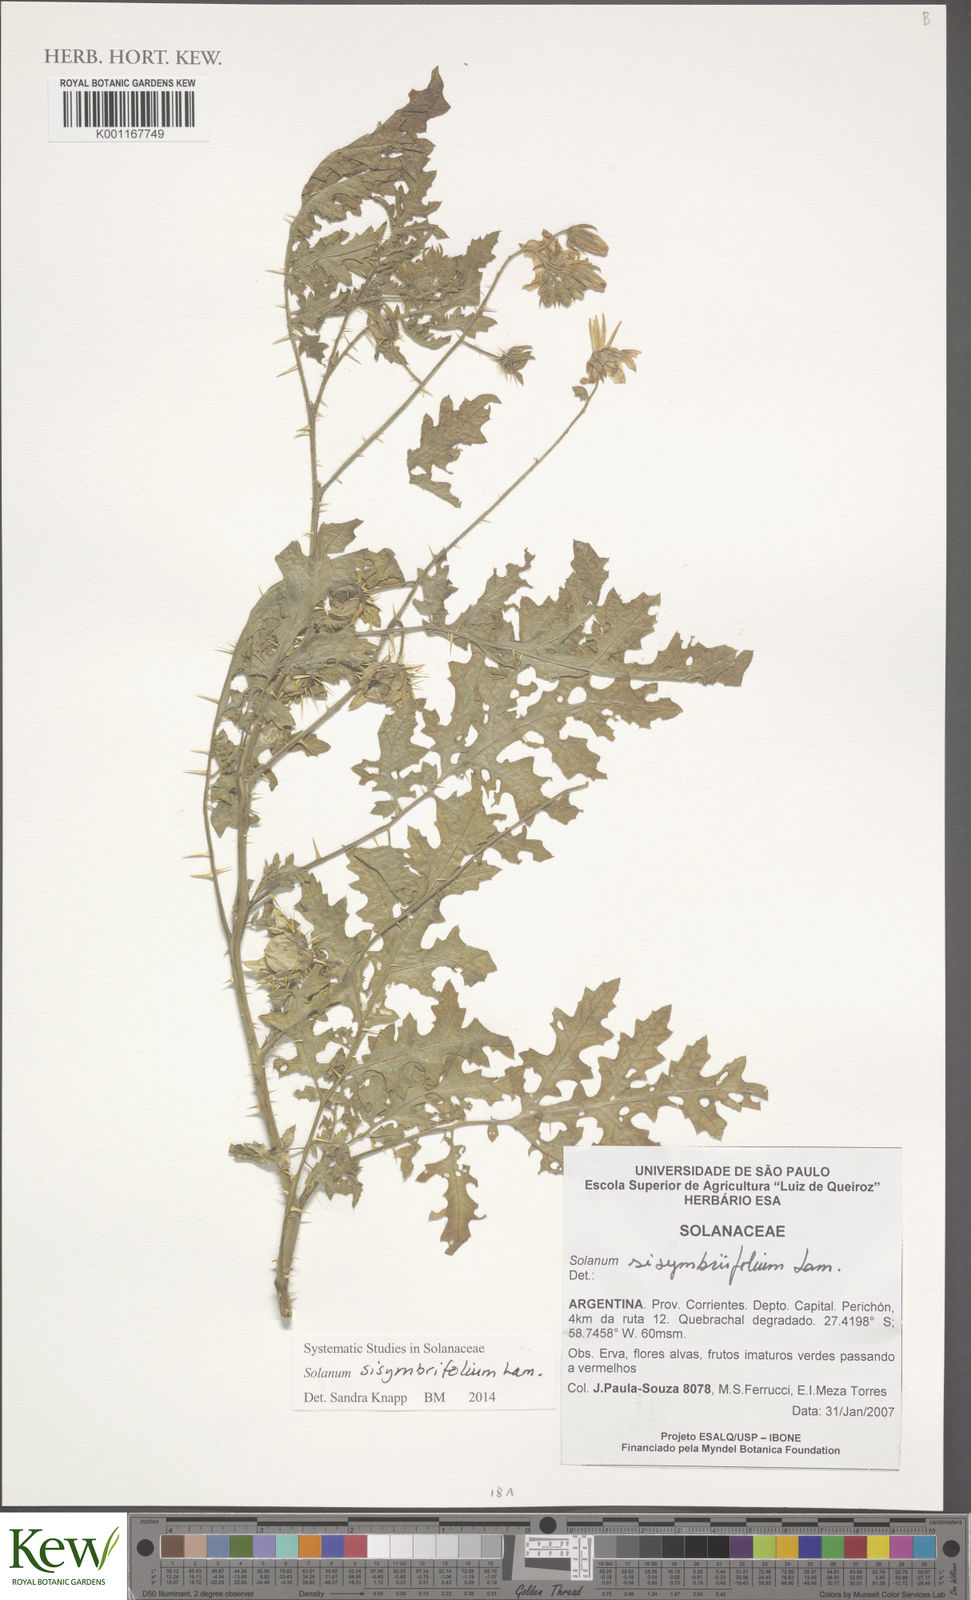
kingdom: Plantae
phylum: Tracheophyta
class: Magnoliopsida
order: Solanales
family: Solanaceae
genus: Solanum
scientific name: Solanum sisymbriifolium
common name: Red buffalo-bur
